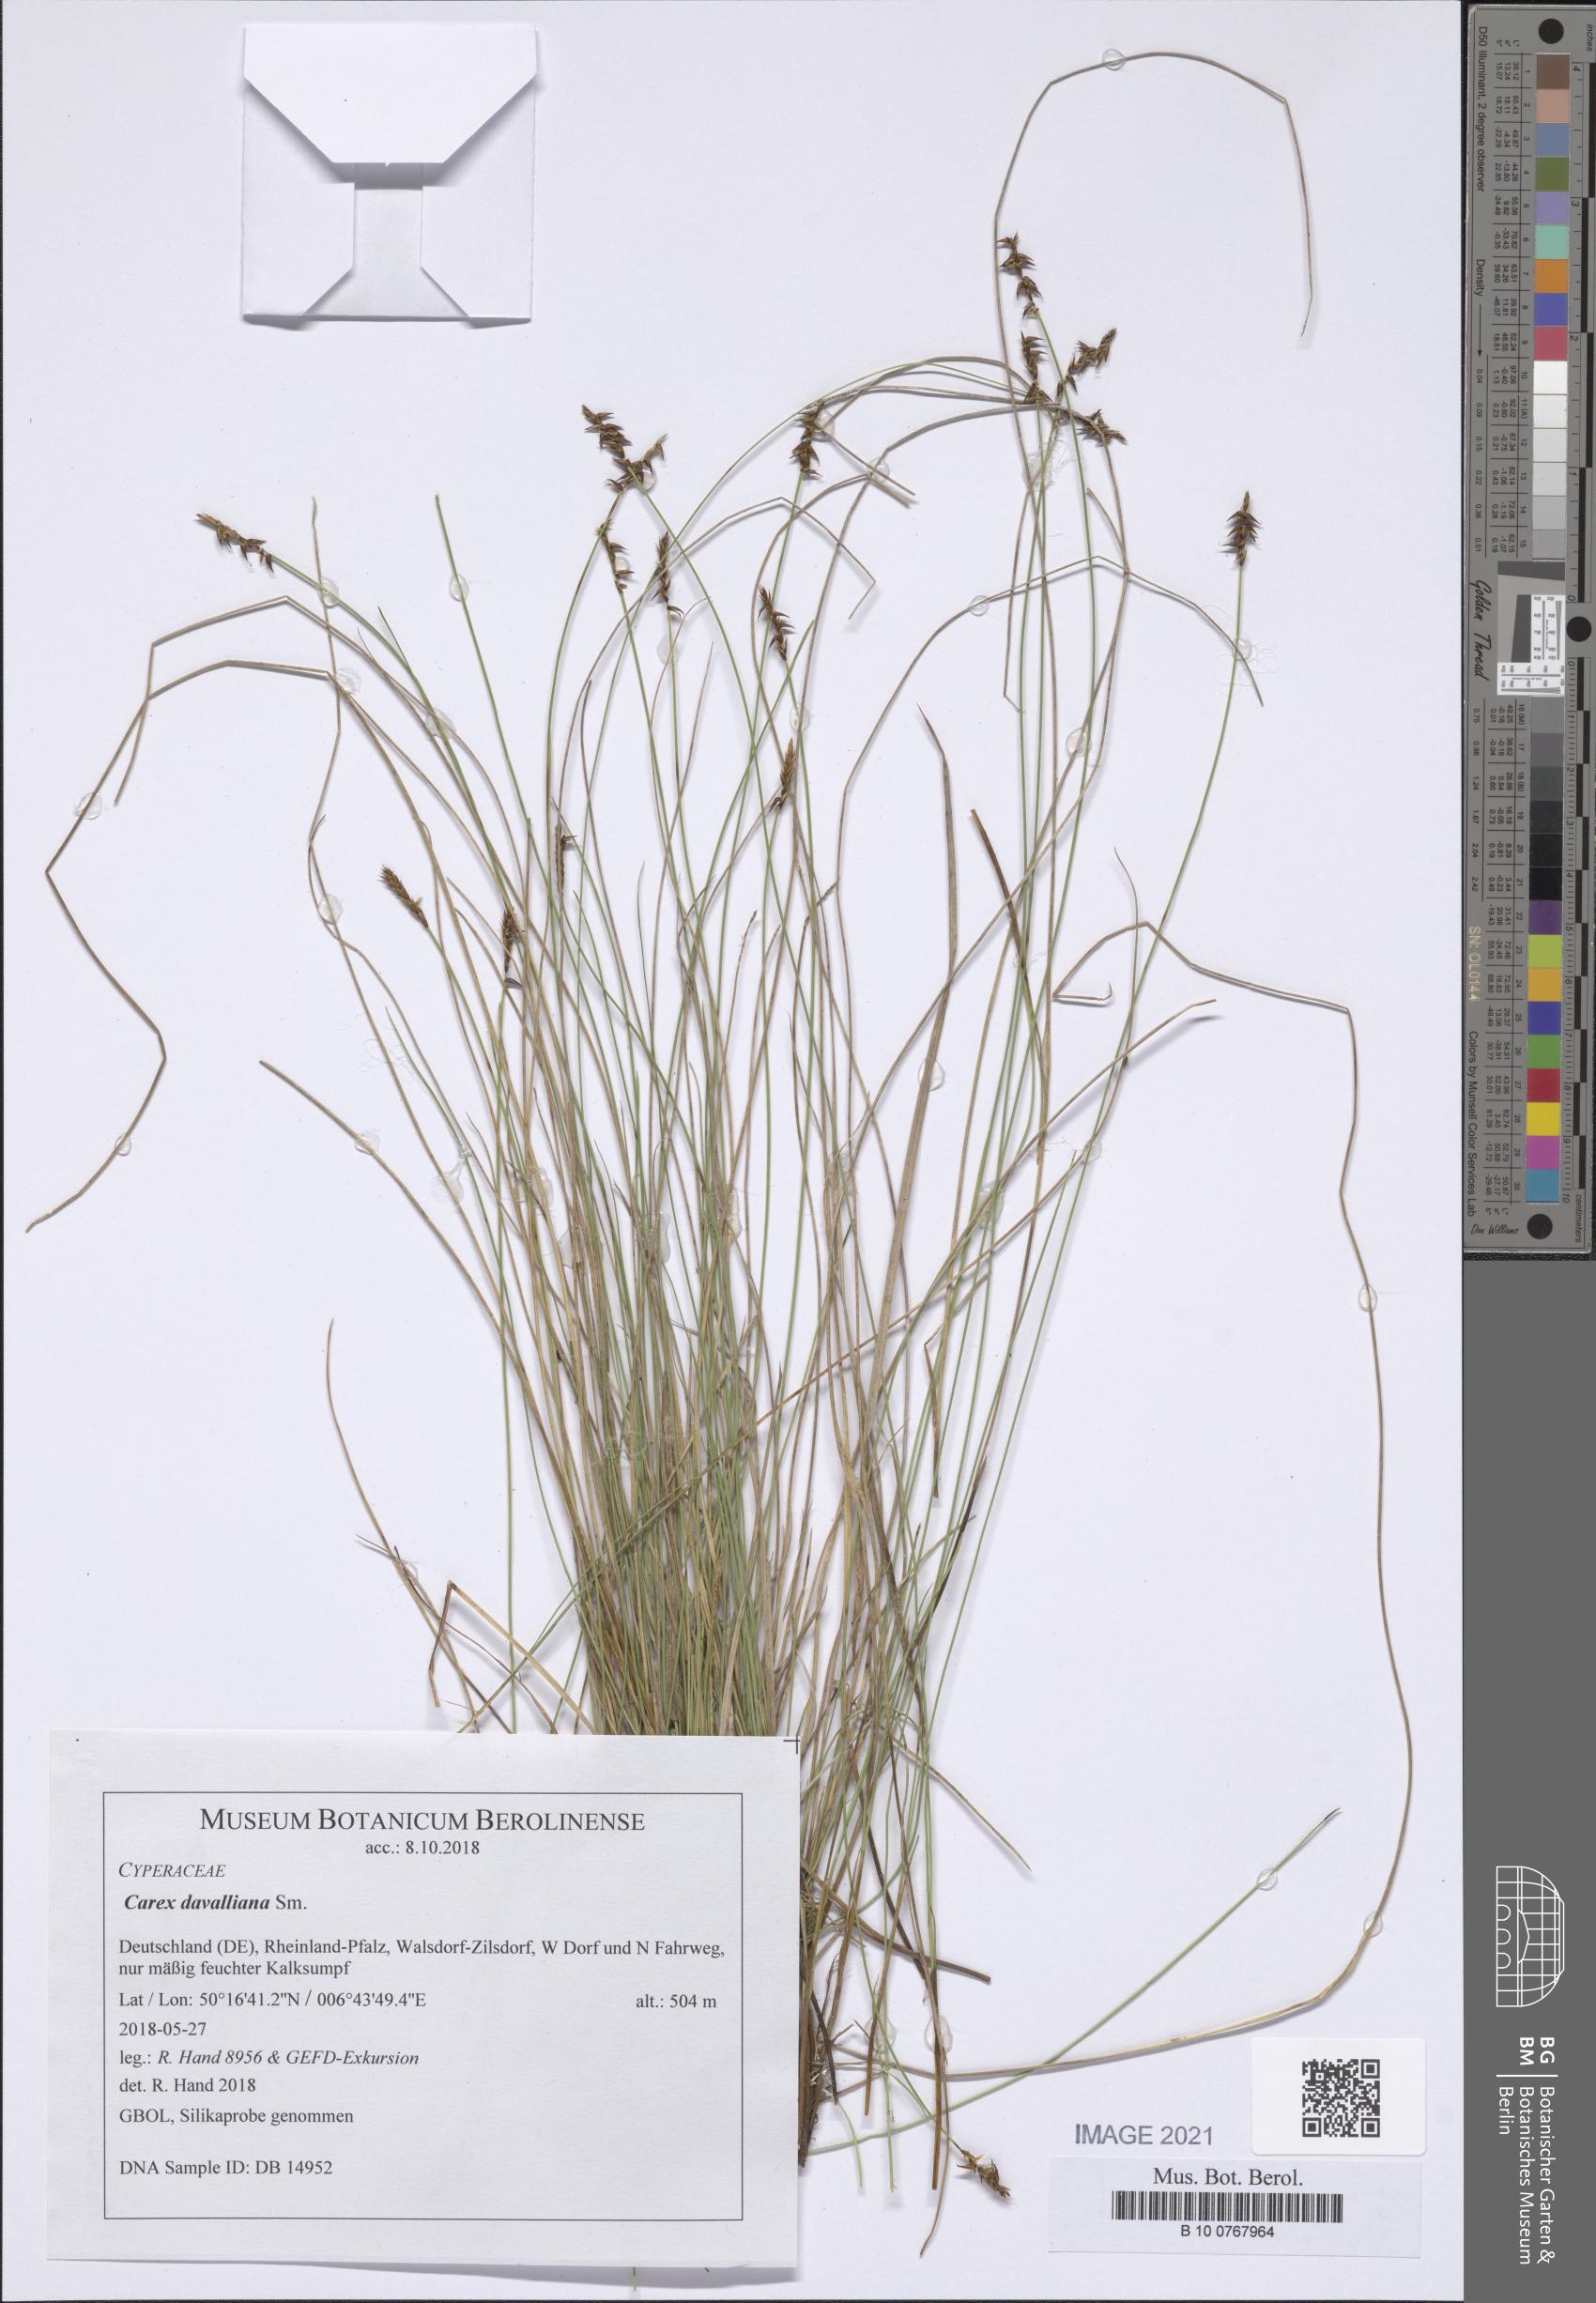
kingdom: Plantae
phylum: Tracheophyta
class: Liliopsida
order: Poales
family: Cyperaceae
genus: Carex
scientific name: Carex davalliana
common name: Davall's sedge
